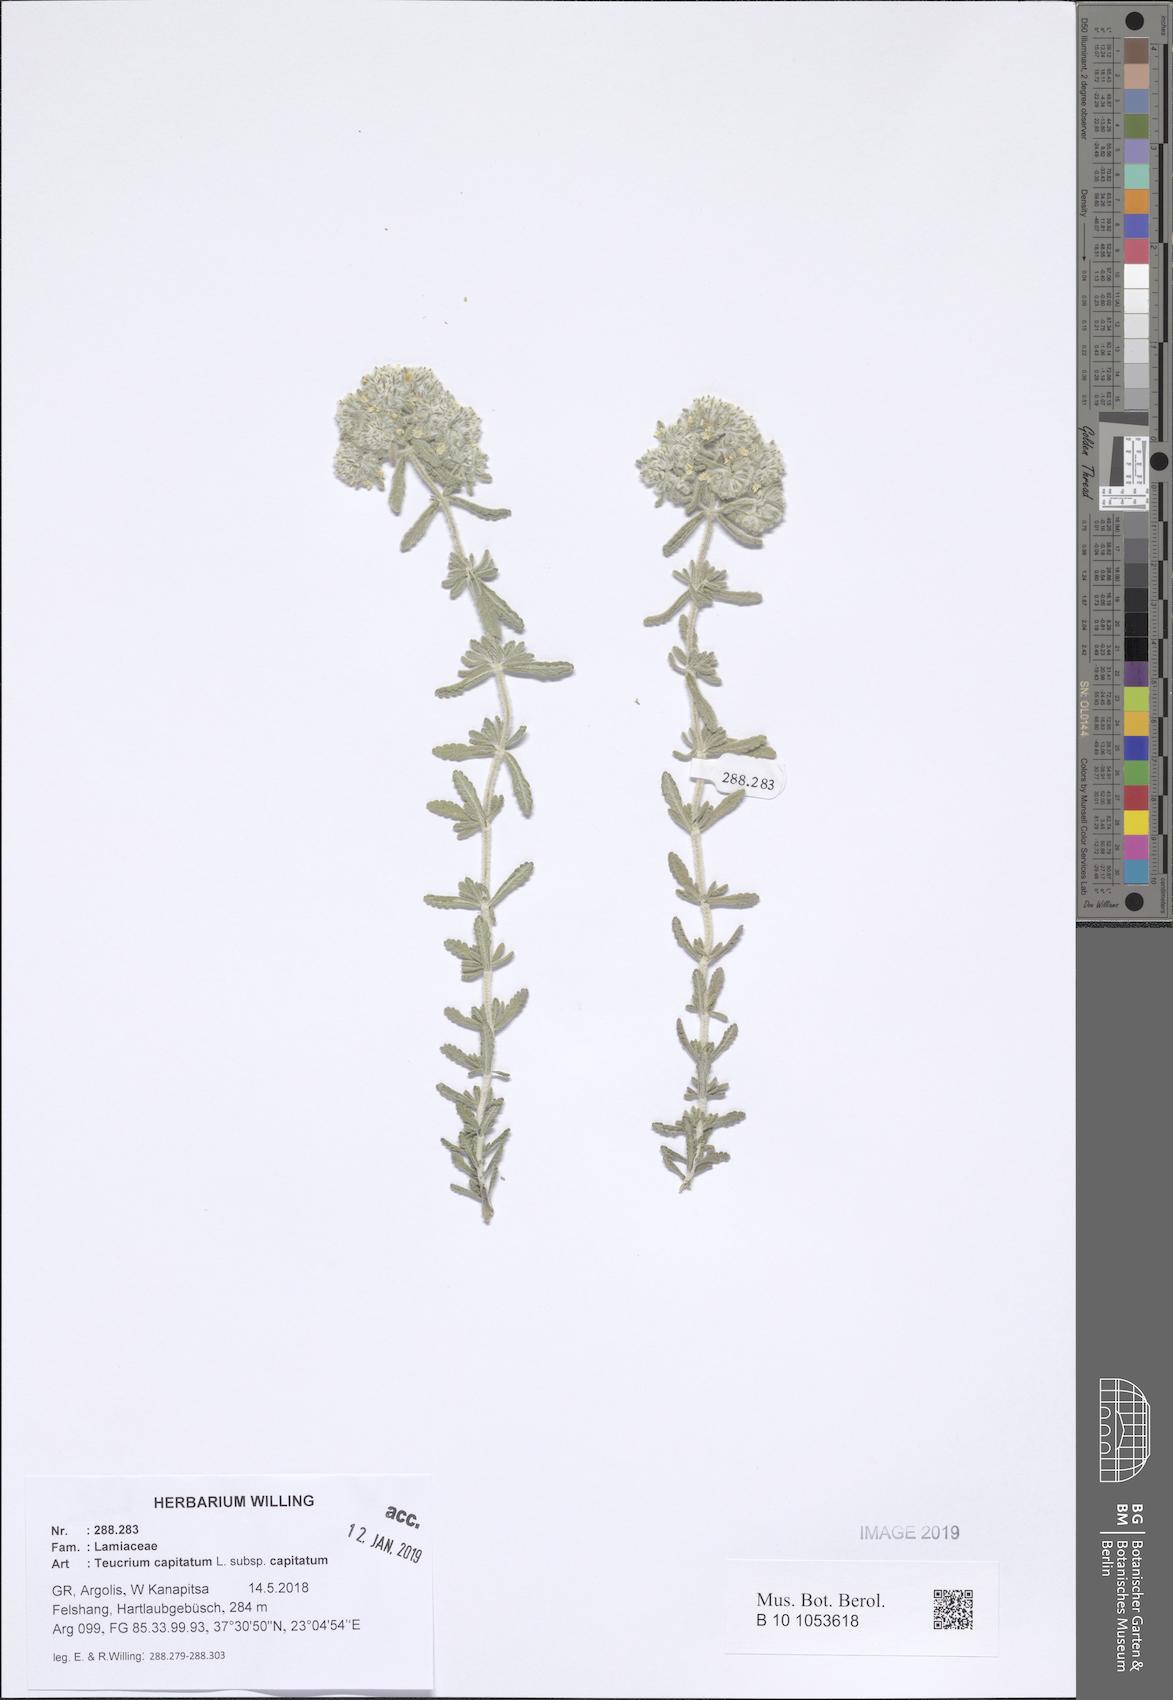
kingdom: Plantae
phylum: Tracheophyta
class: Magnoliopsida
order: Lamiales
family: Lamiaceae
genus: Teucrium
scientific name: Teucrium capitatum
